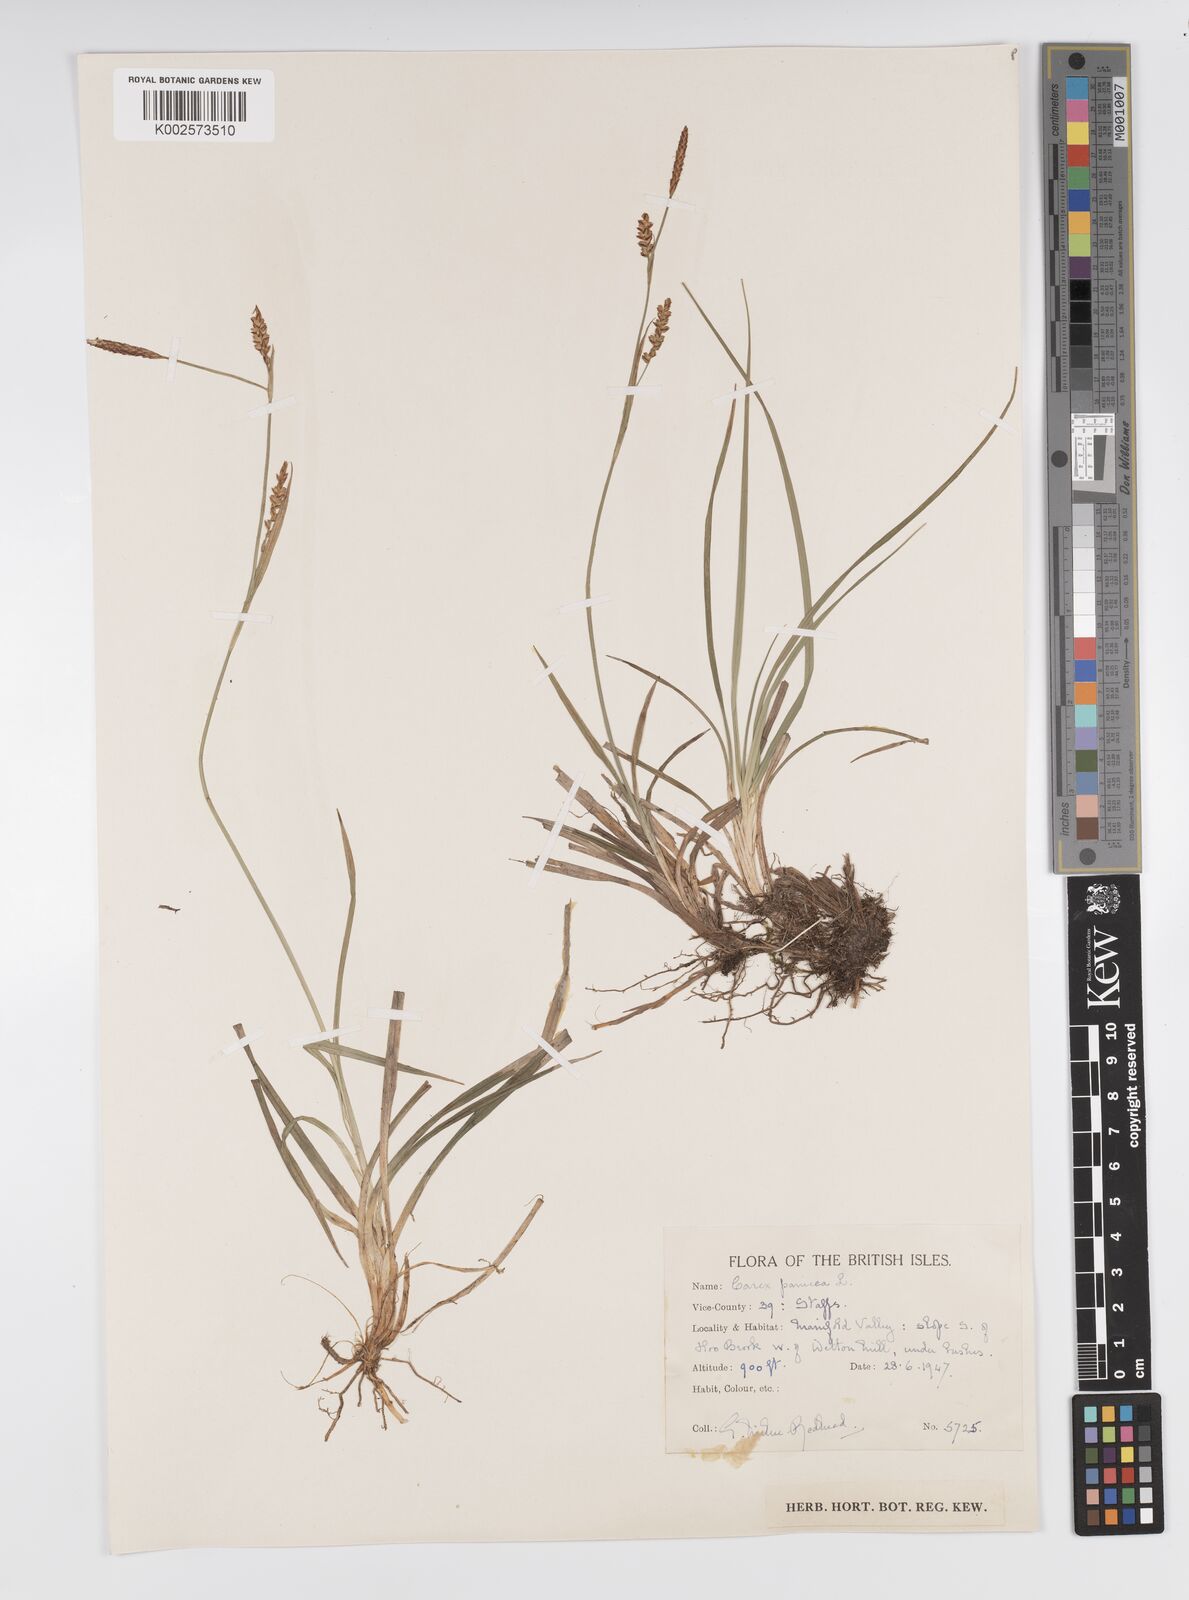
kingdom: Plantae
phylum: Tracheophyta
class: Liliopsida
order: Poales
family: Cyperaceae
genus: Carex
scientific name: Carex panicea
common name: Carnation sedge
